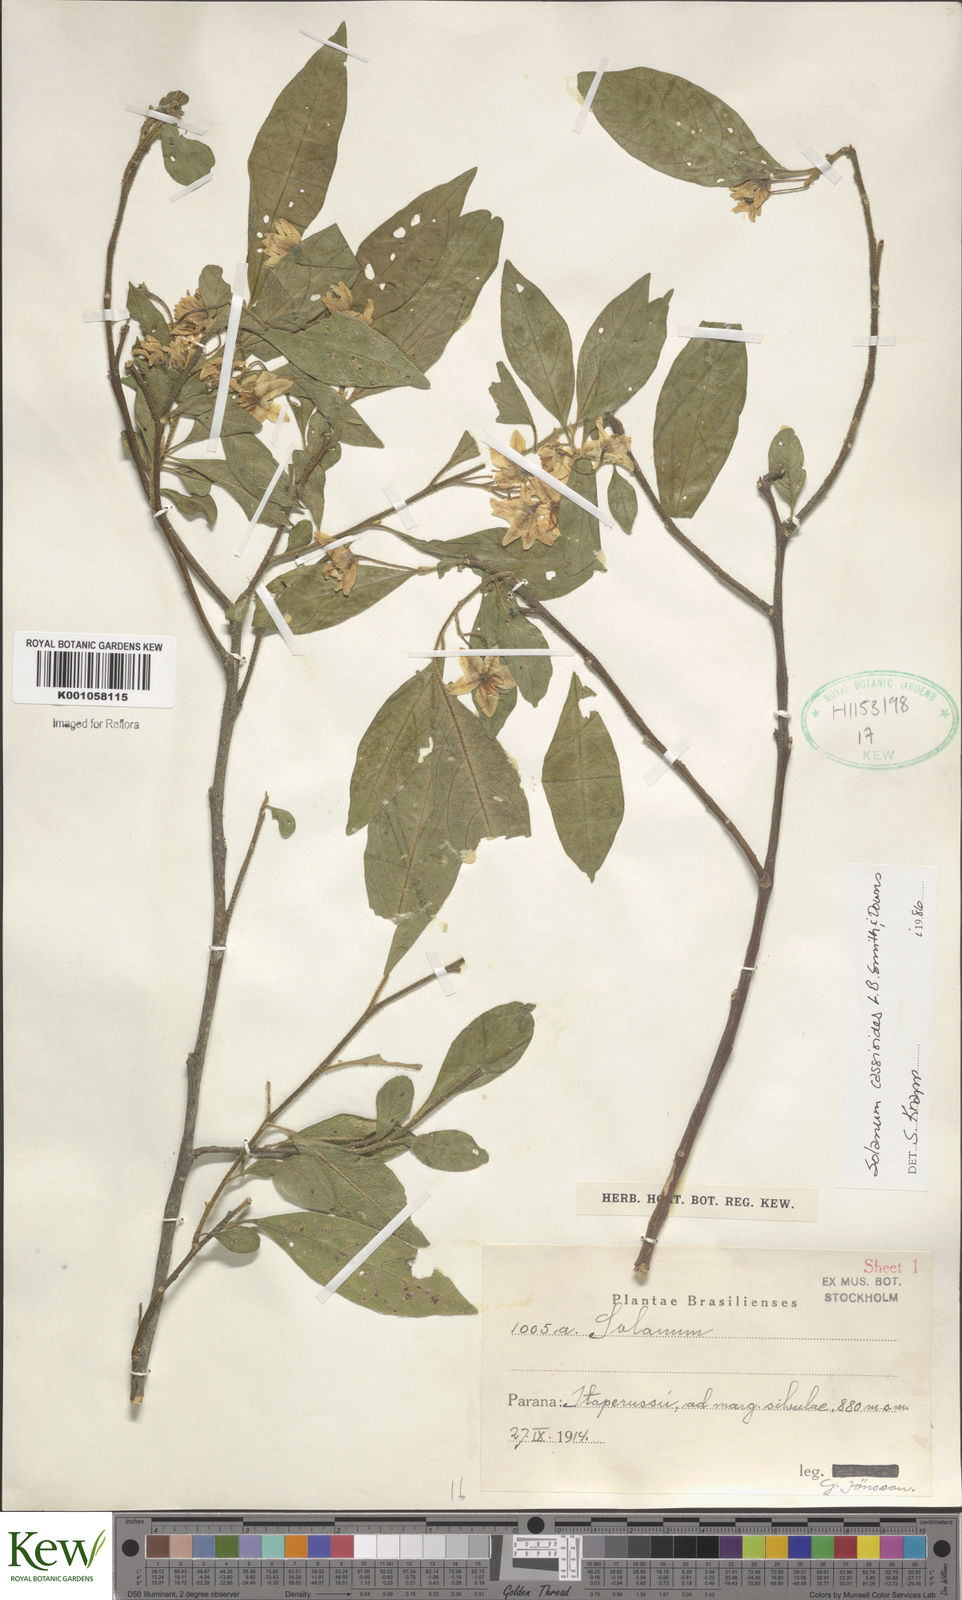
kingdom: Plantae
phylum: Tracheophyta
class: Magnoliopsida
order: Solanales
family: Solanaceae
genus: Solanum
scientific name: Solanum cassioides
